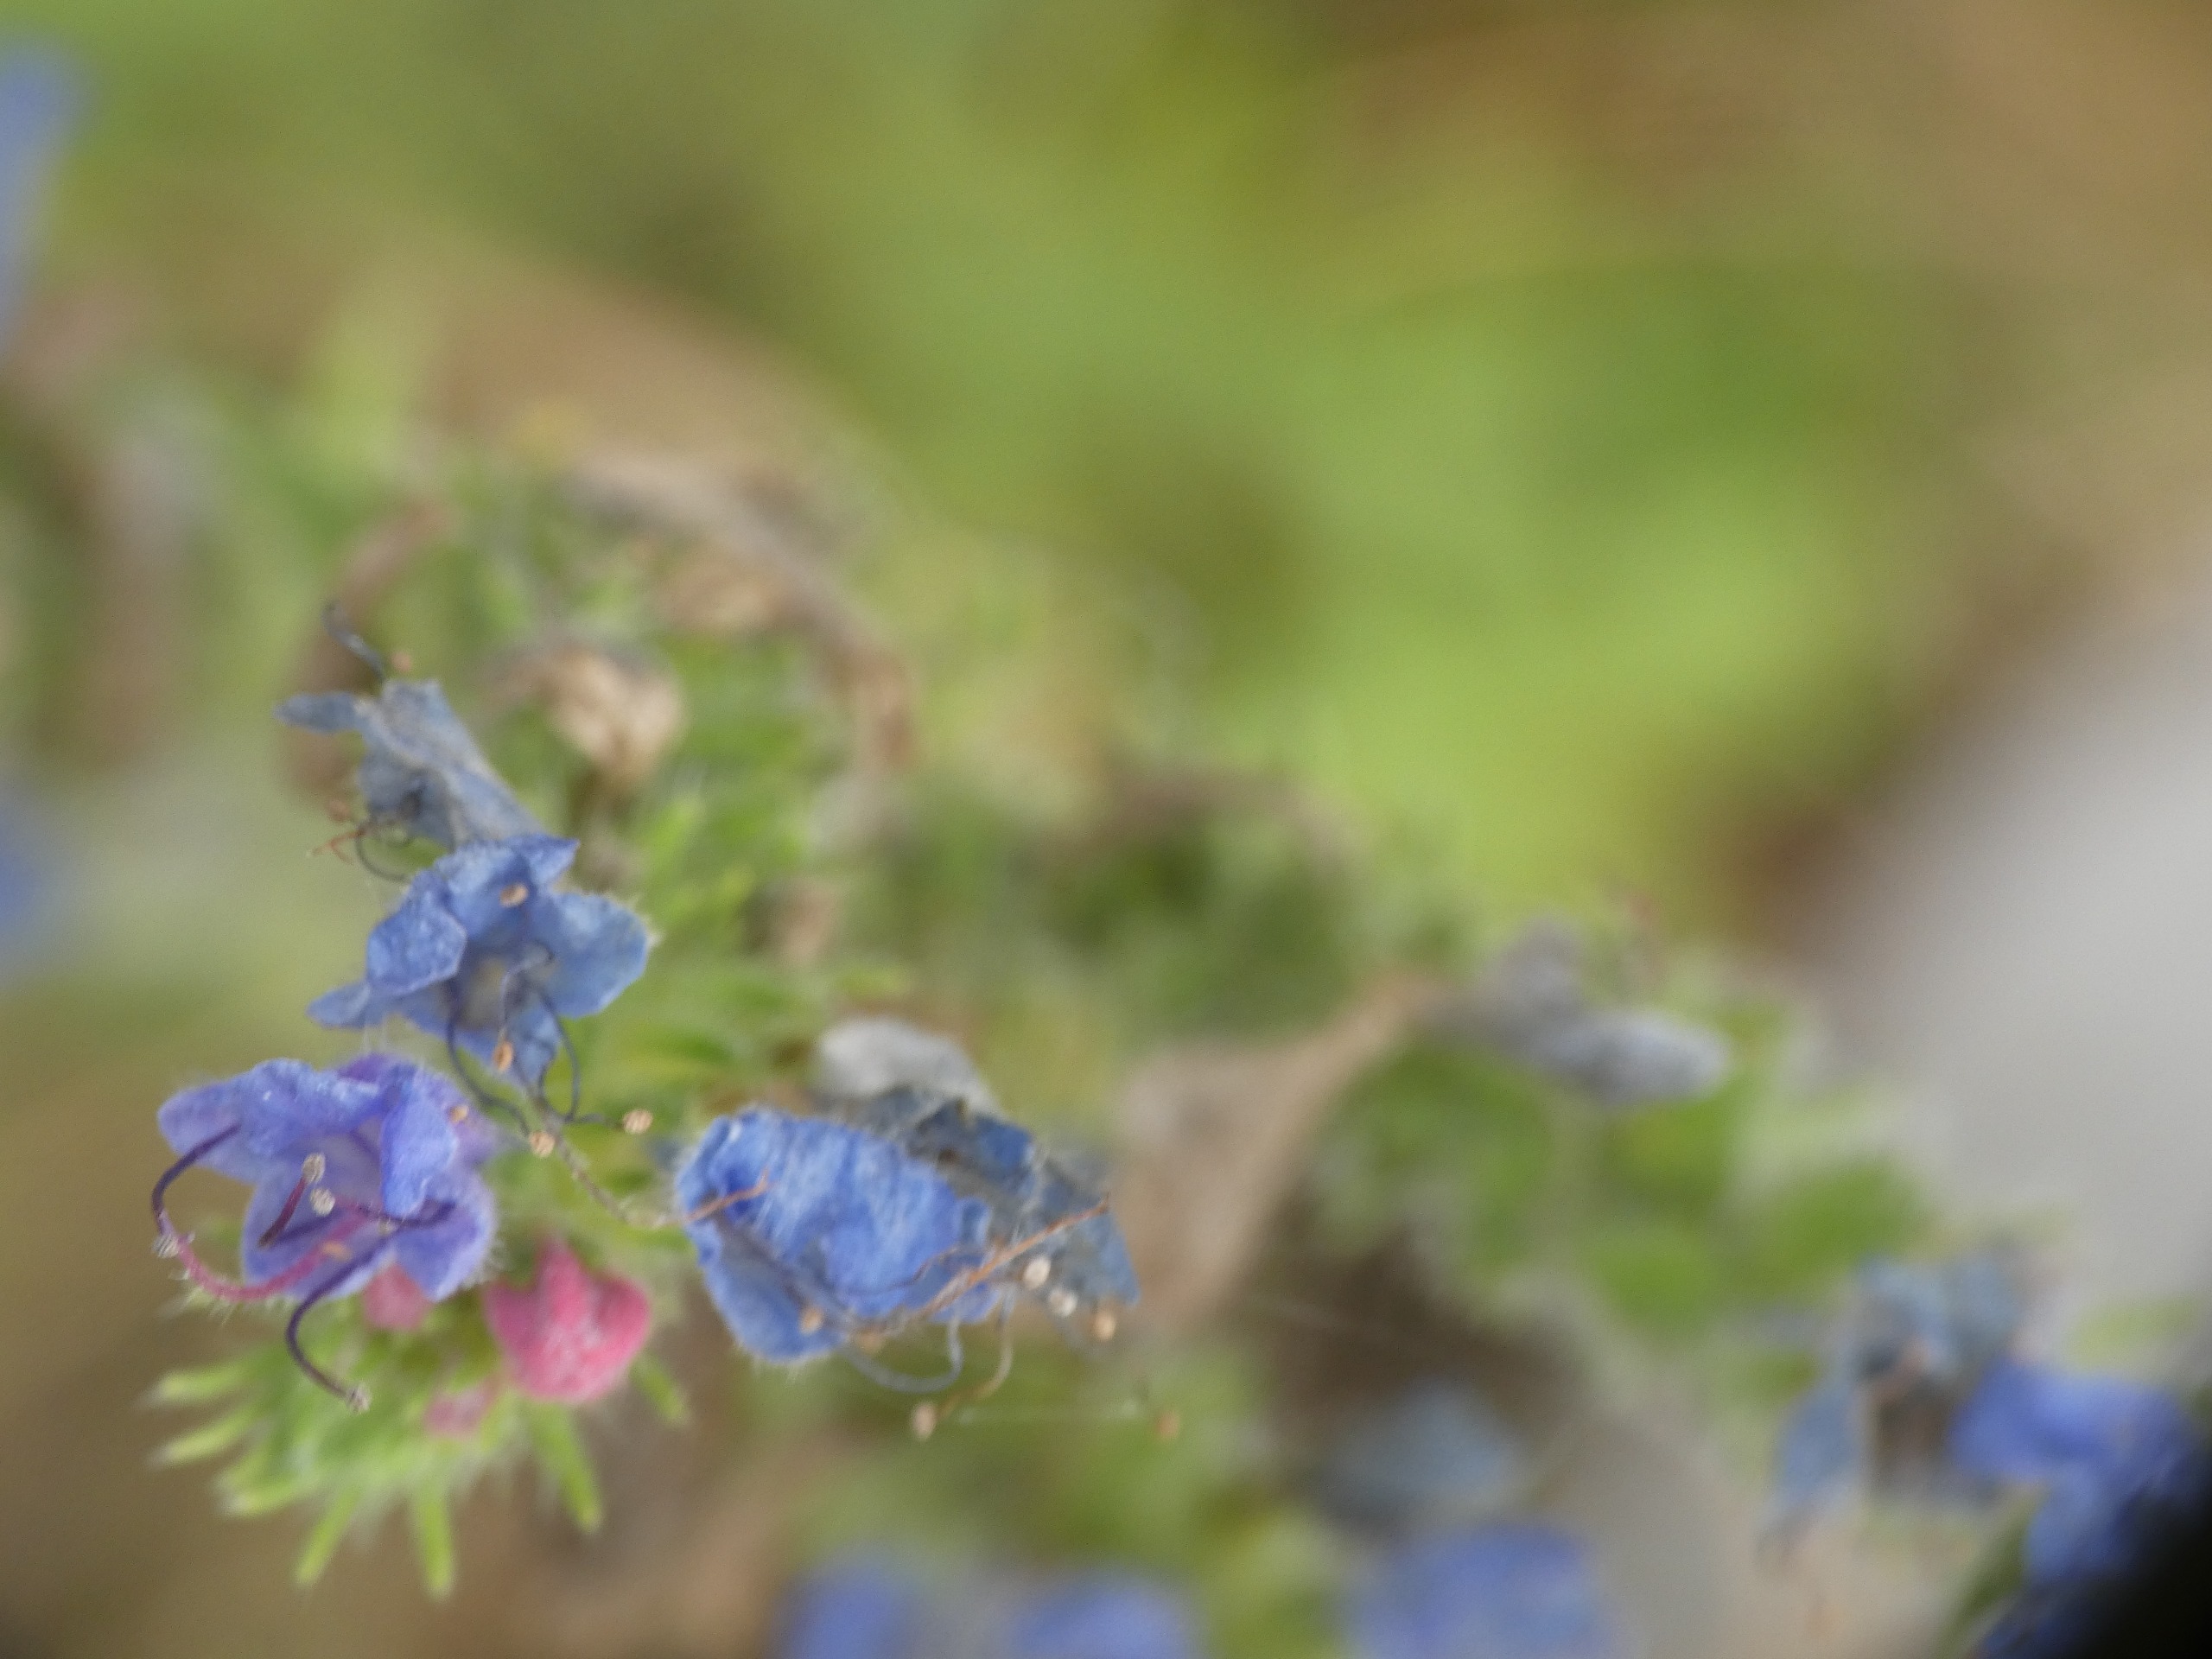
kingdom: Plantae
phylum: Tracheophyta
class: Magnoliopsida
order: Boraginales
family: Boraginaceae
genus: Echium
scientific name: Echium vulgare
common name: Slangehoved
